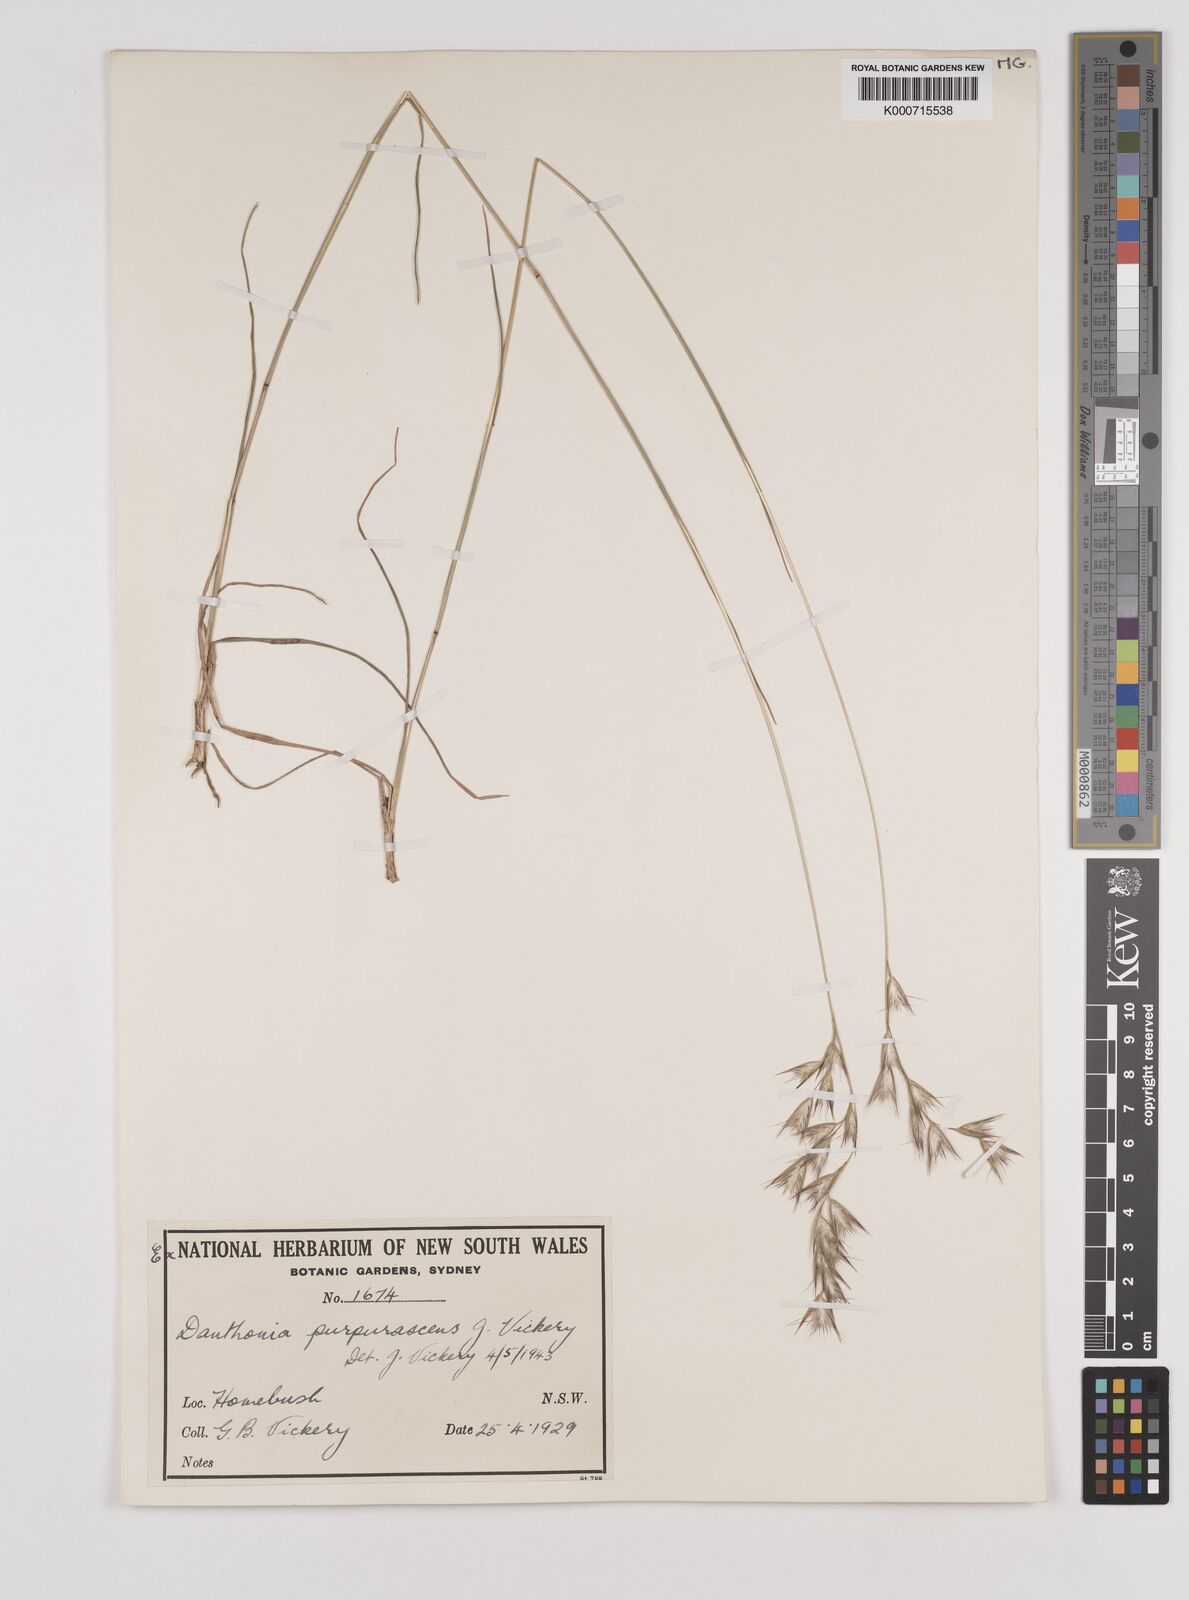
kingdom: Plantae
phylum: Tracheophyta
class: Liliopsida
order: Poales
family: Poaceae
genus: Rytidosperma
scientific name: Rytidosperma tenuius
